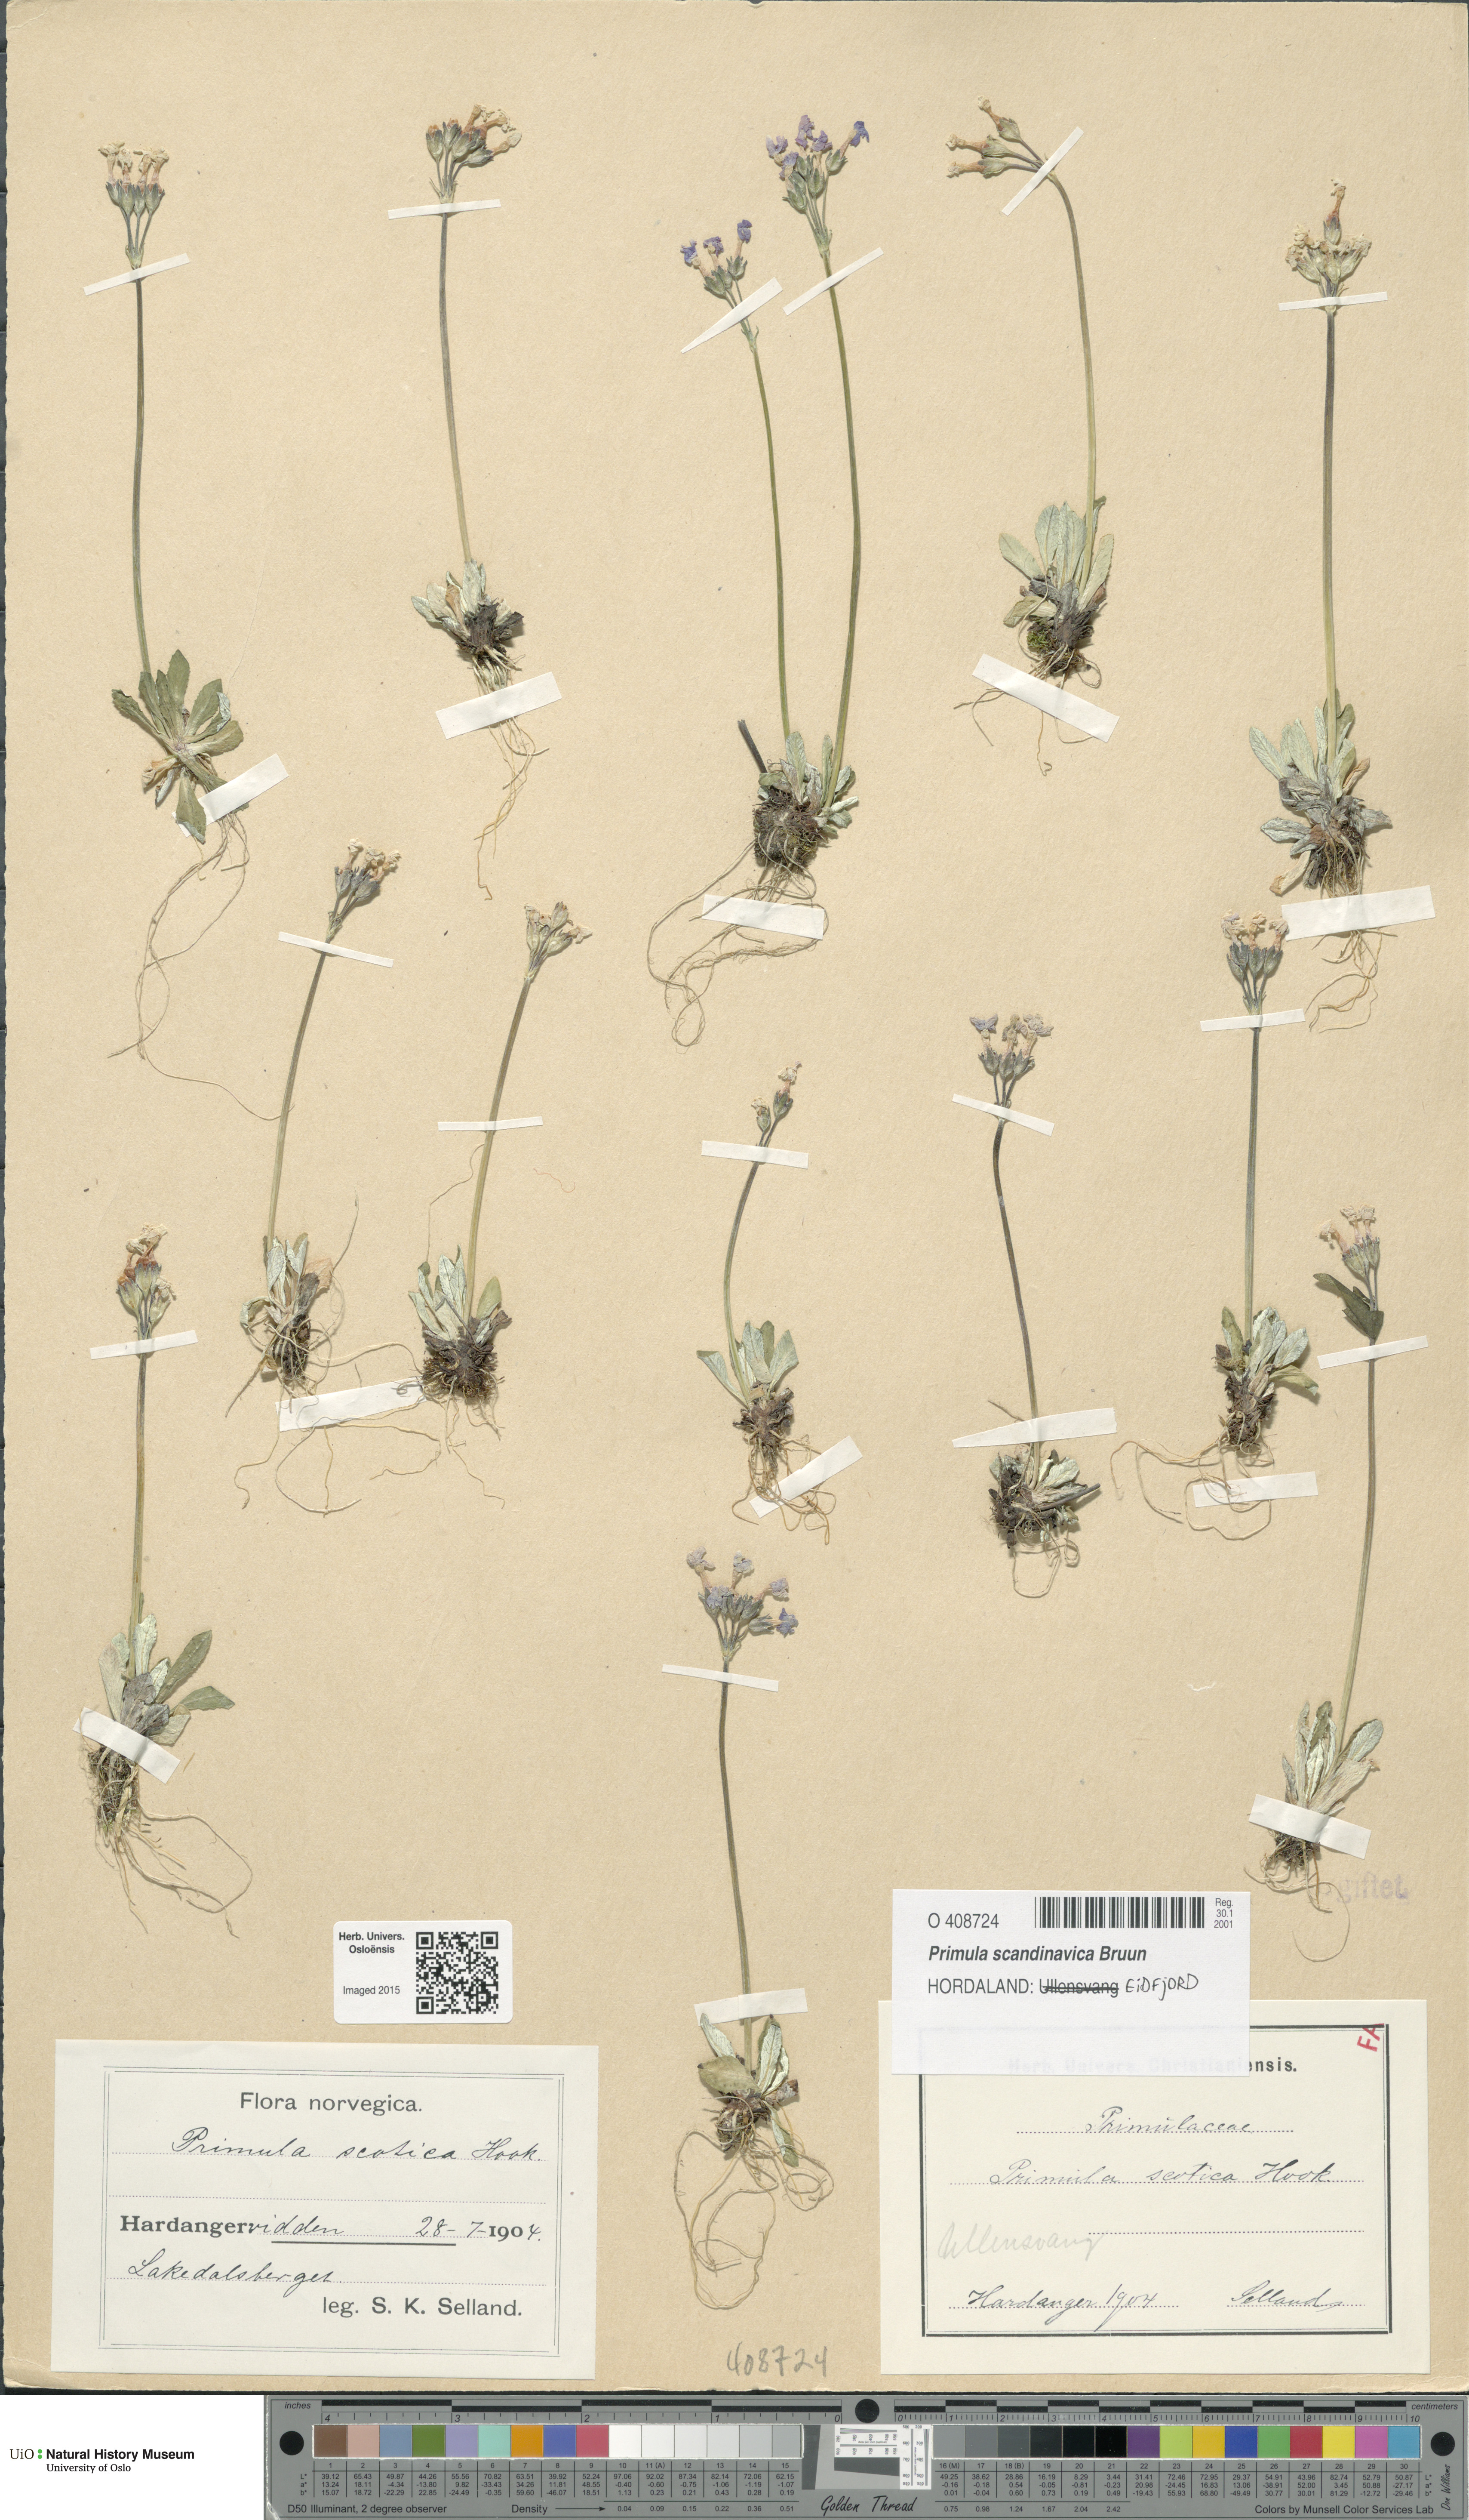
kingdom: Plantae
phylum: Tracheophyta
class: Magnoliopsida
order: Ericales
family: Primulaceae
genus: Primula
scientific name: Primula scandinavica
